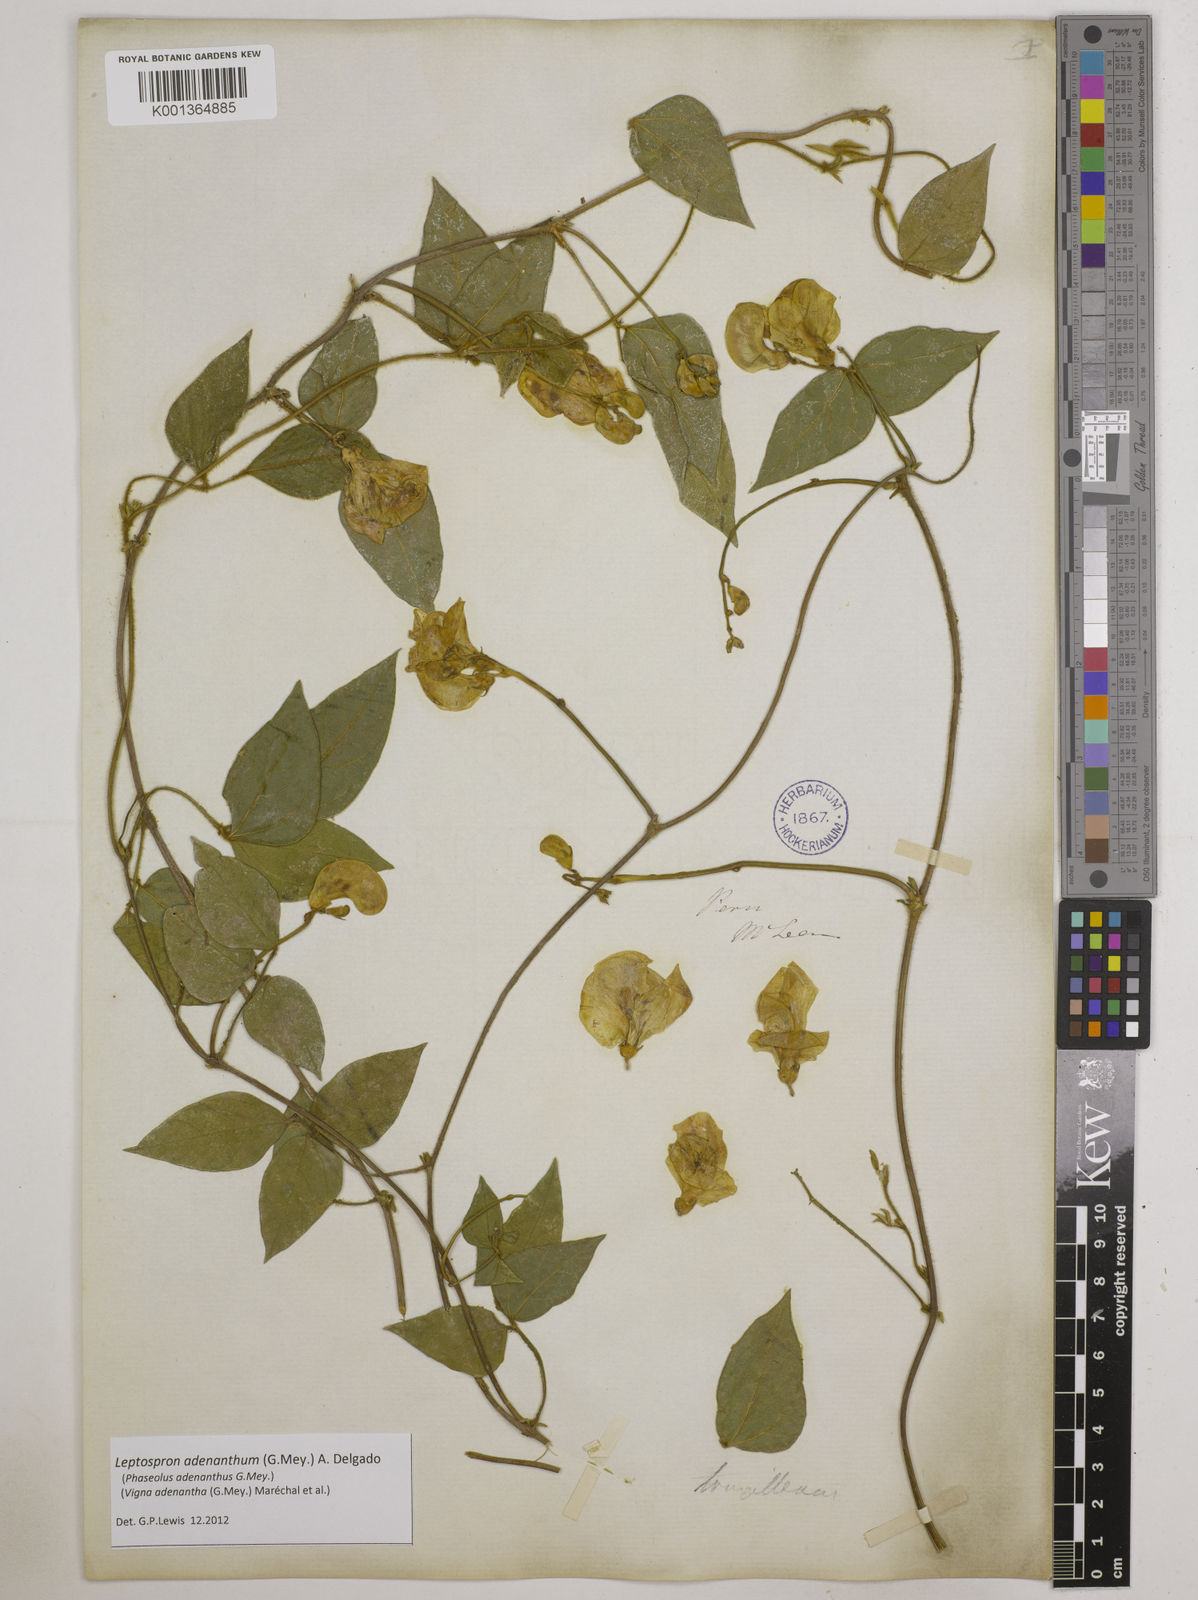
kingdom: Plantae
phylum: Tracheophyta
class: Magnoliopsida
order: Fabales
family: Fabaceae
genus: Leptospron
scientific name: Leptospron adenanthum
